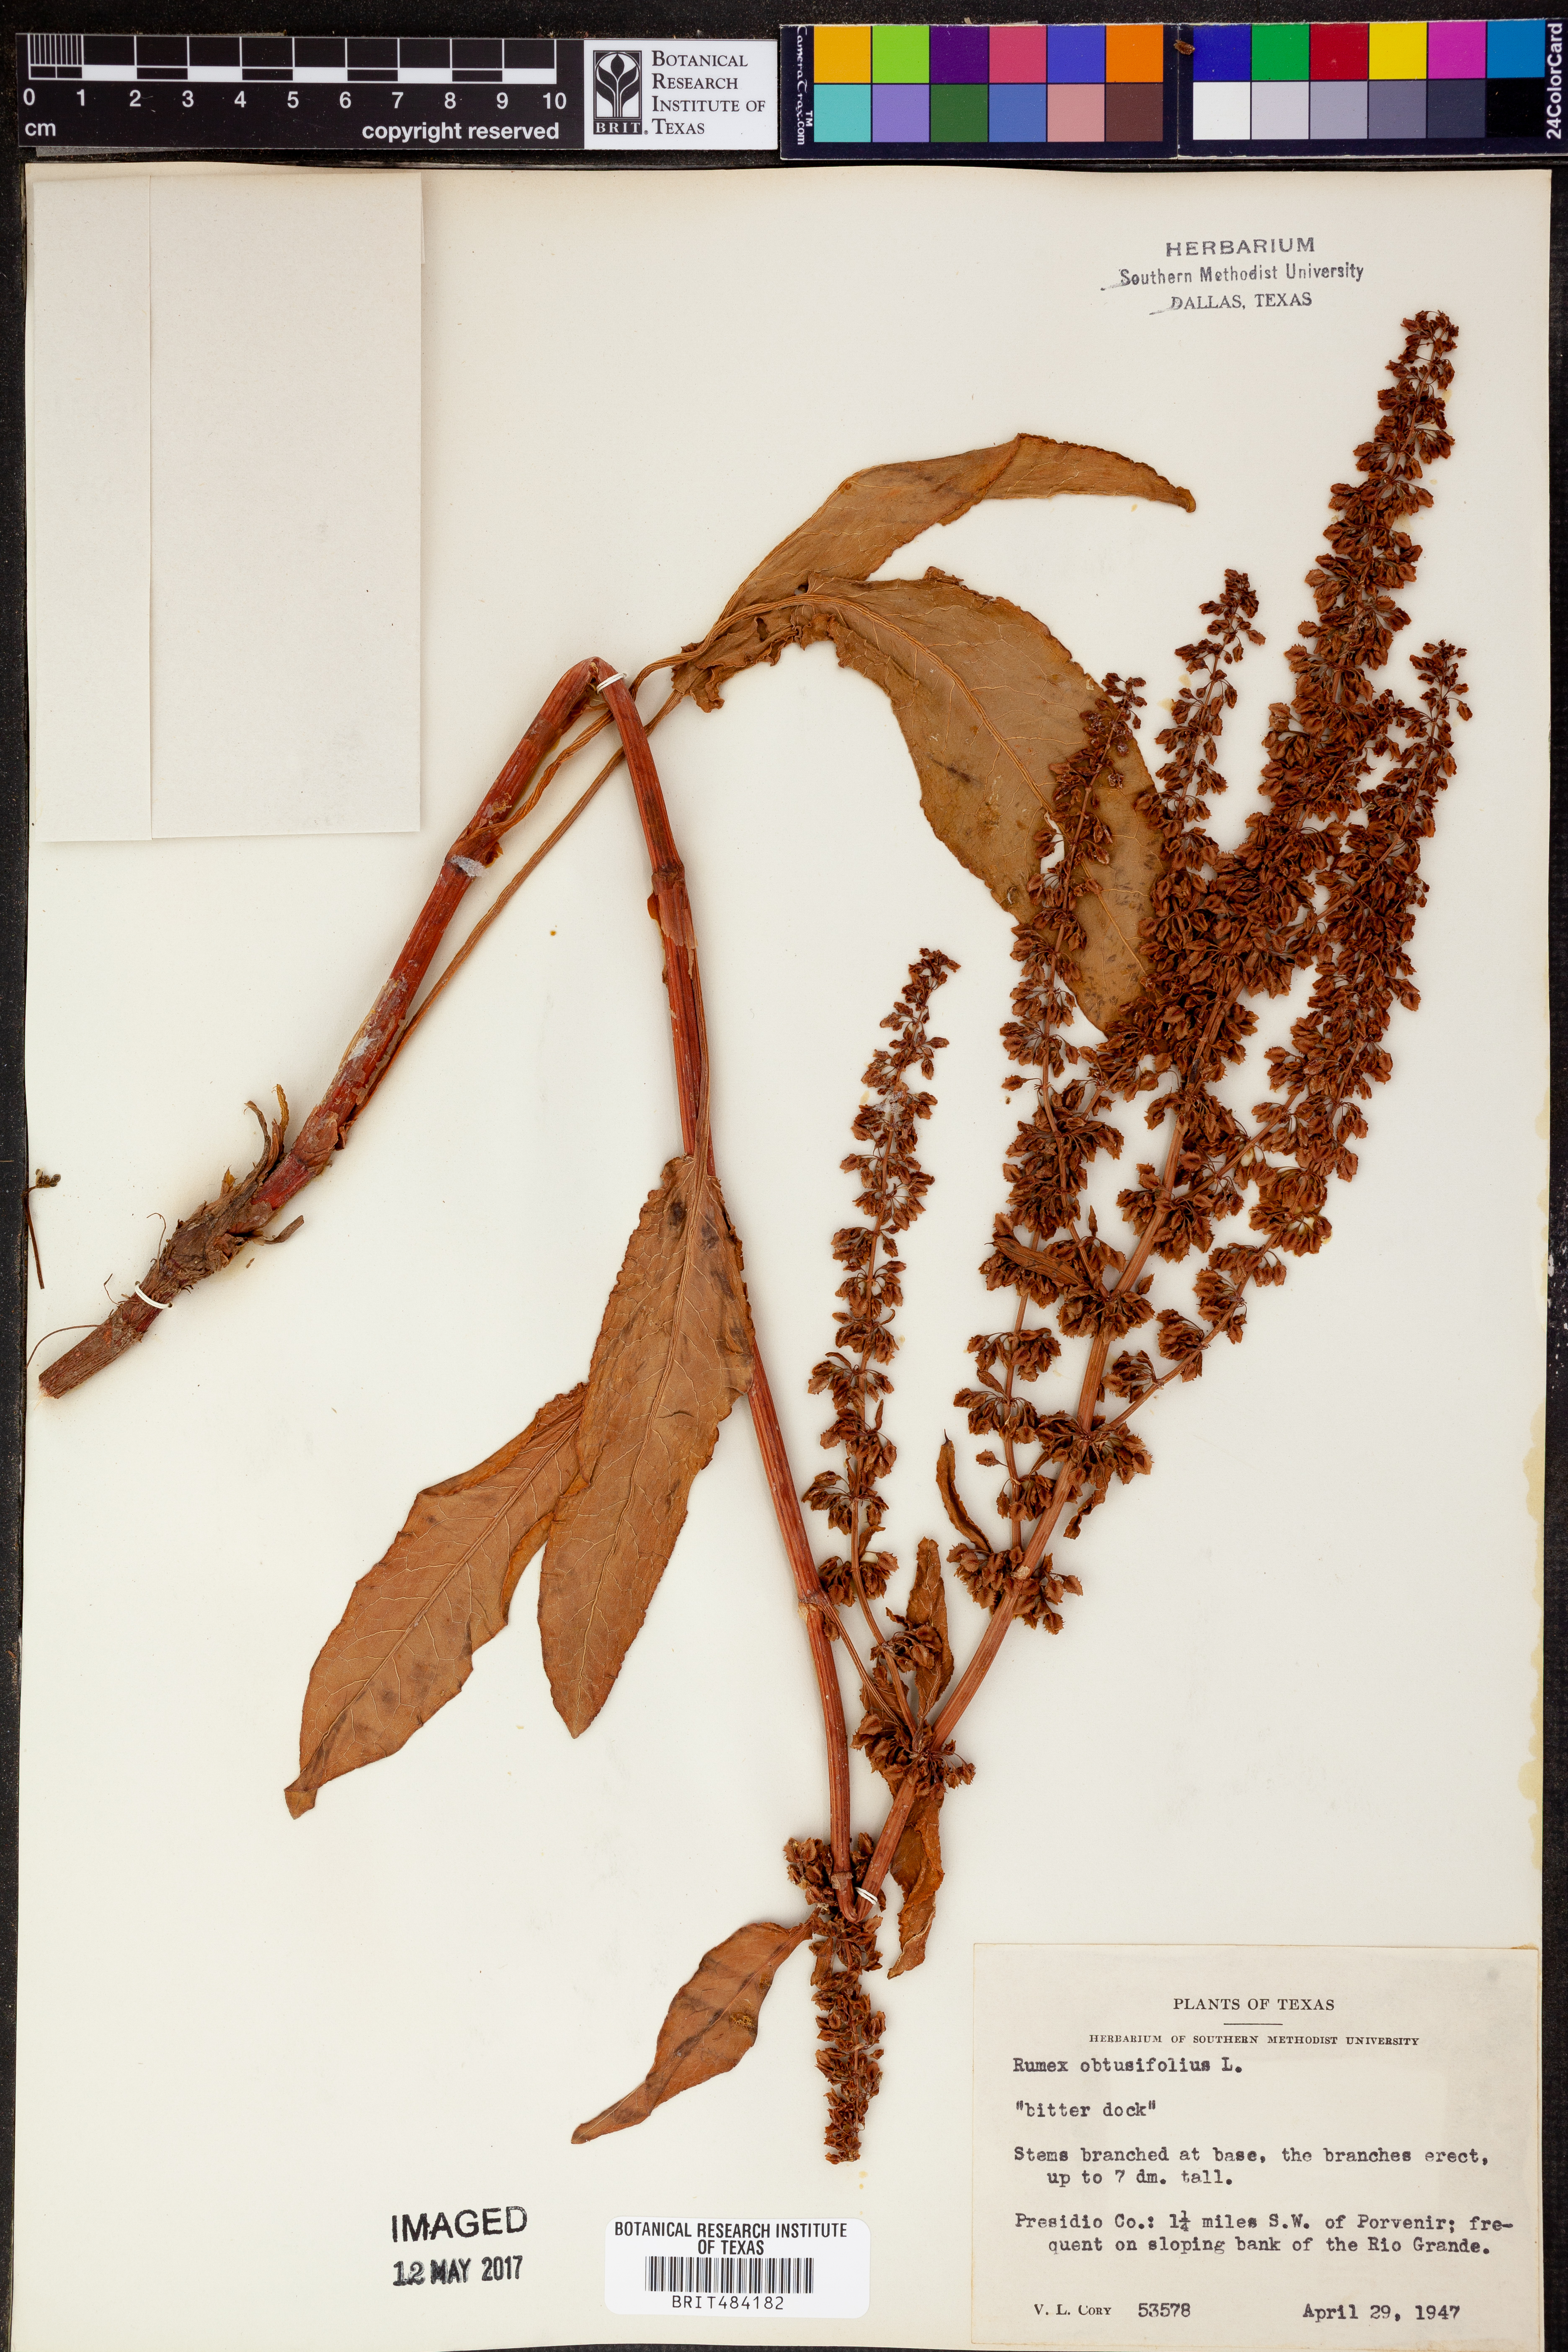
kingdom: Plantae
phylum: Tracheophyta
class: Magnoliopsida
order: Caryophyllales
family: Polygonaceae
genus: Rumex
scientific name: Rumex obtusifolius
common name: Bitter dock
